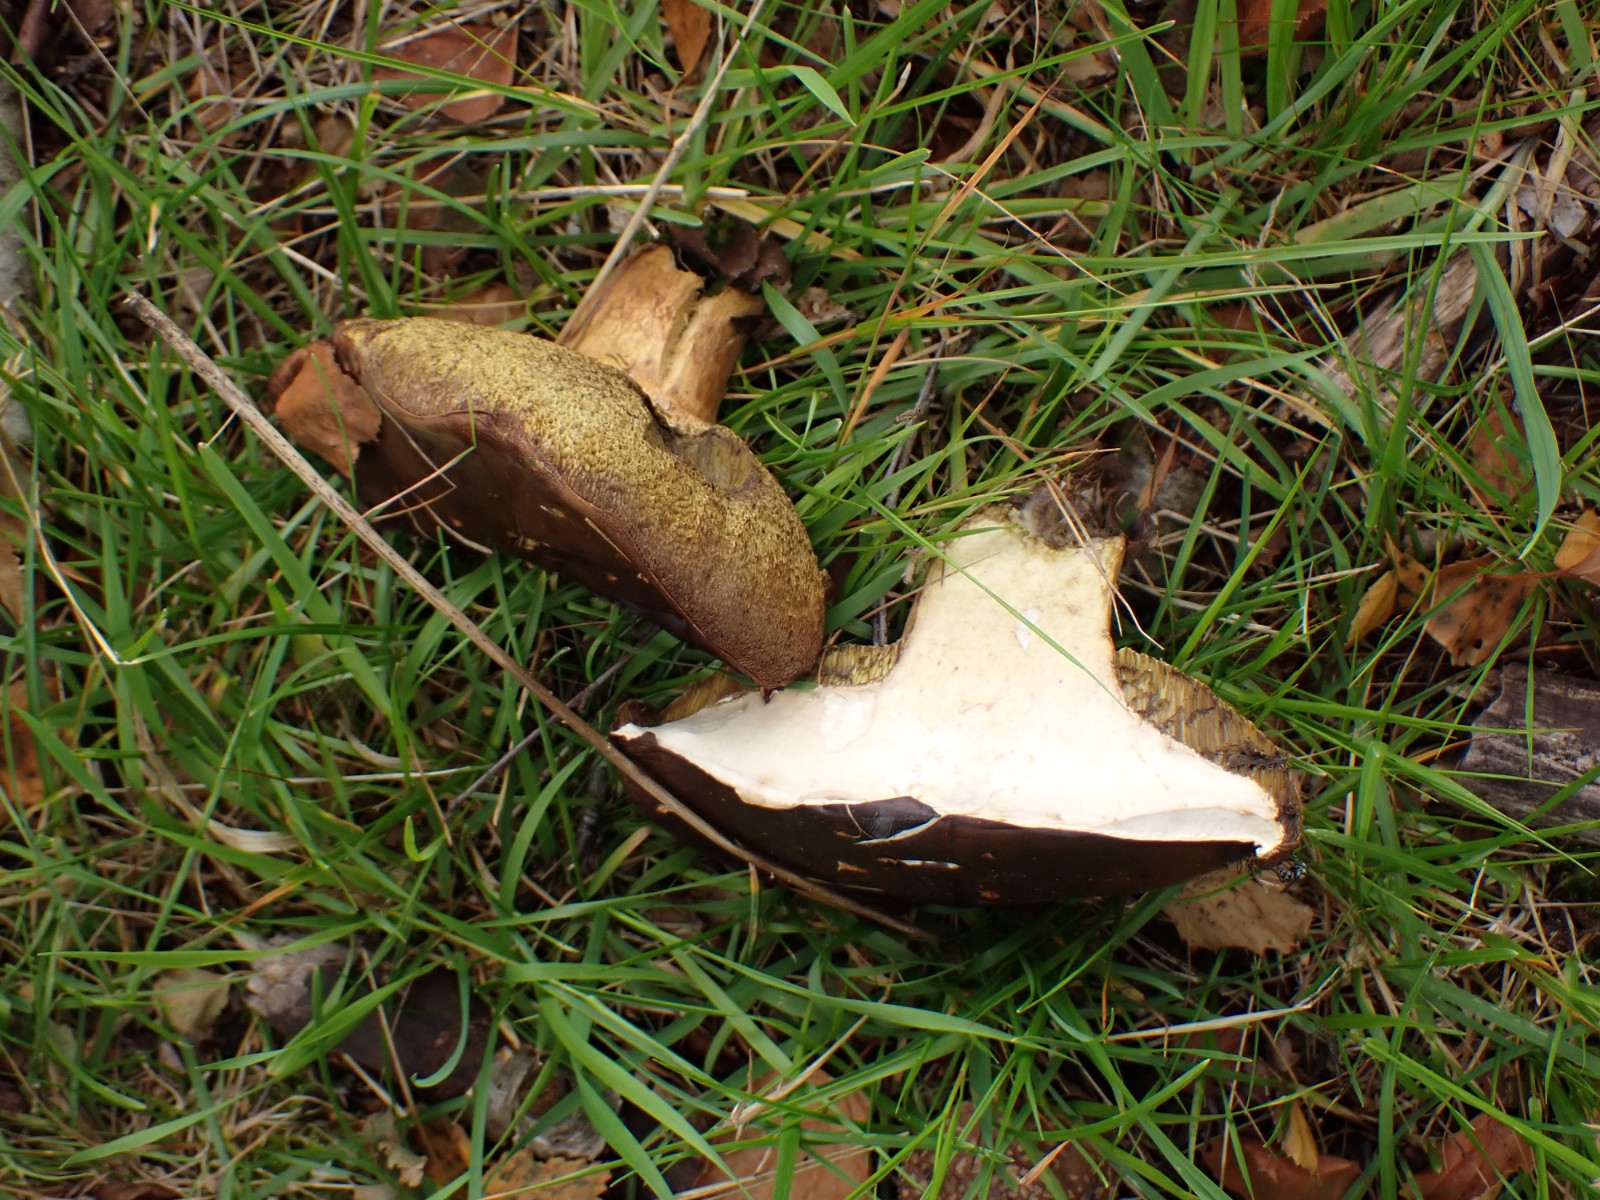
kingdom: Fungi
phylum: Basidiomycota
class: Agaricomycetes
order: Boletales
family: Boletaceae
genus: Imleria
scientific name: Imleria badia
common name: brunstokket rørhat
